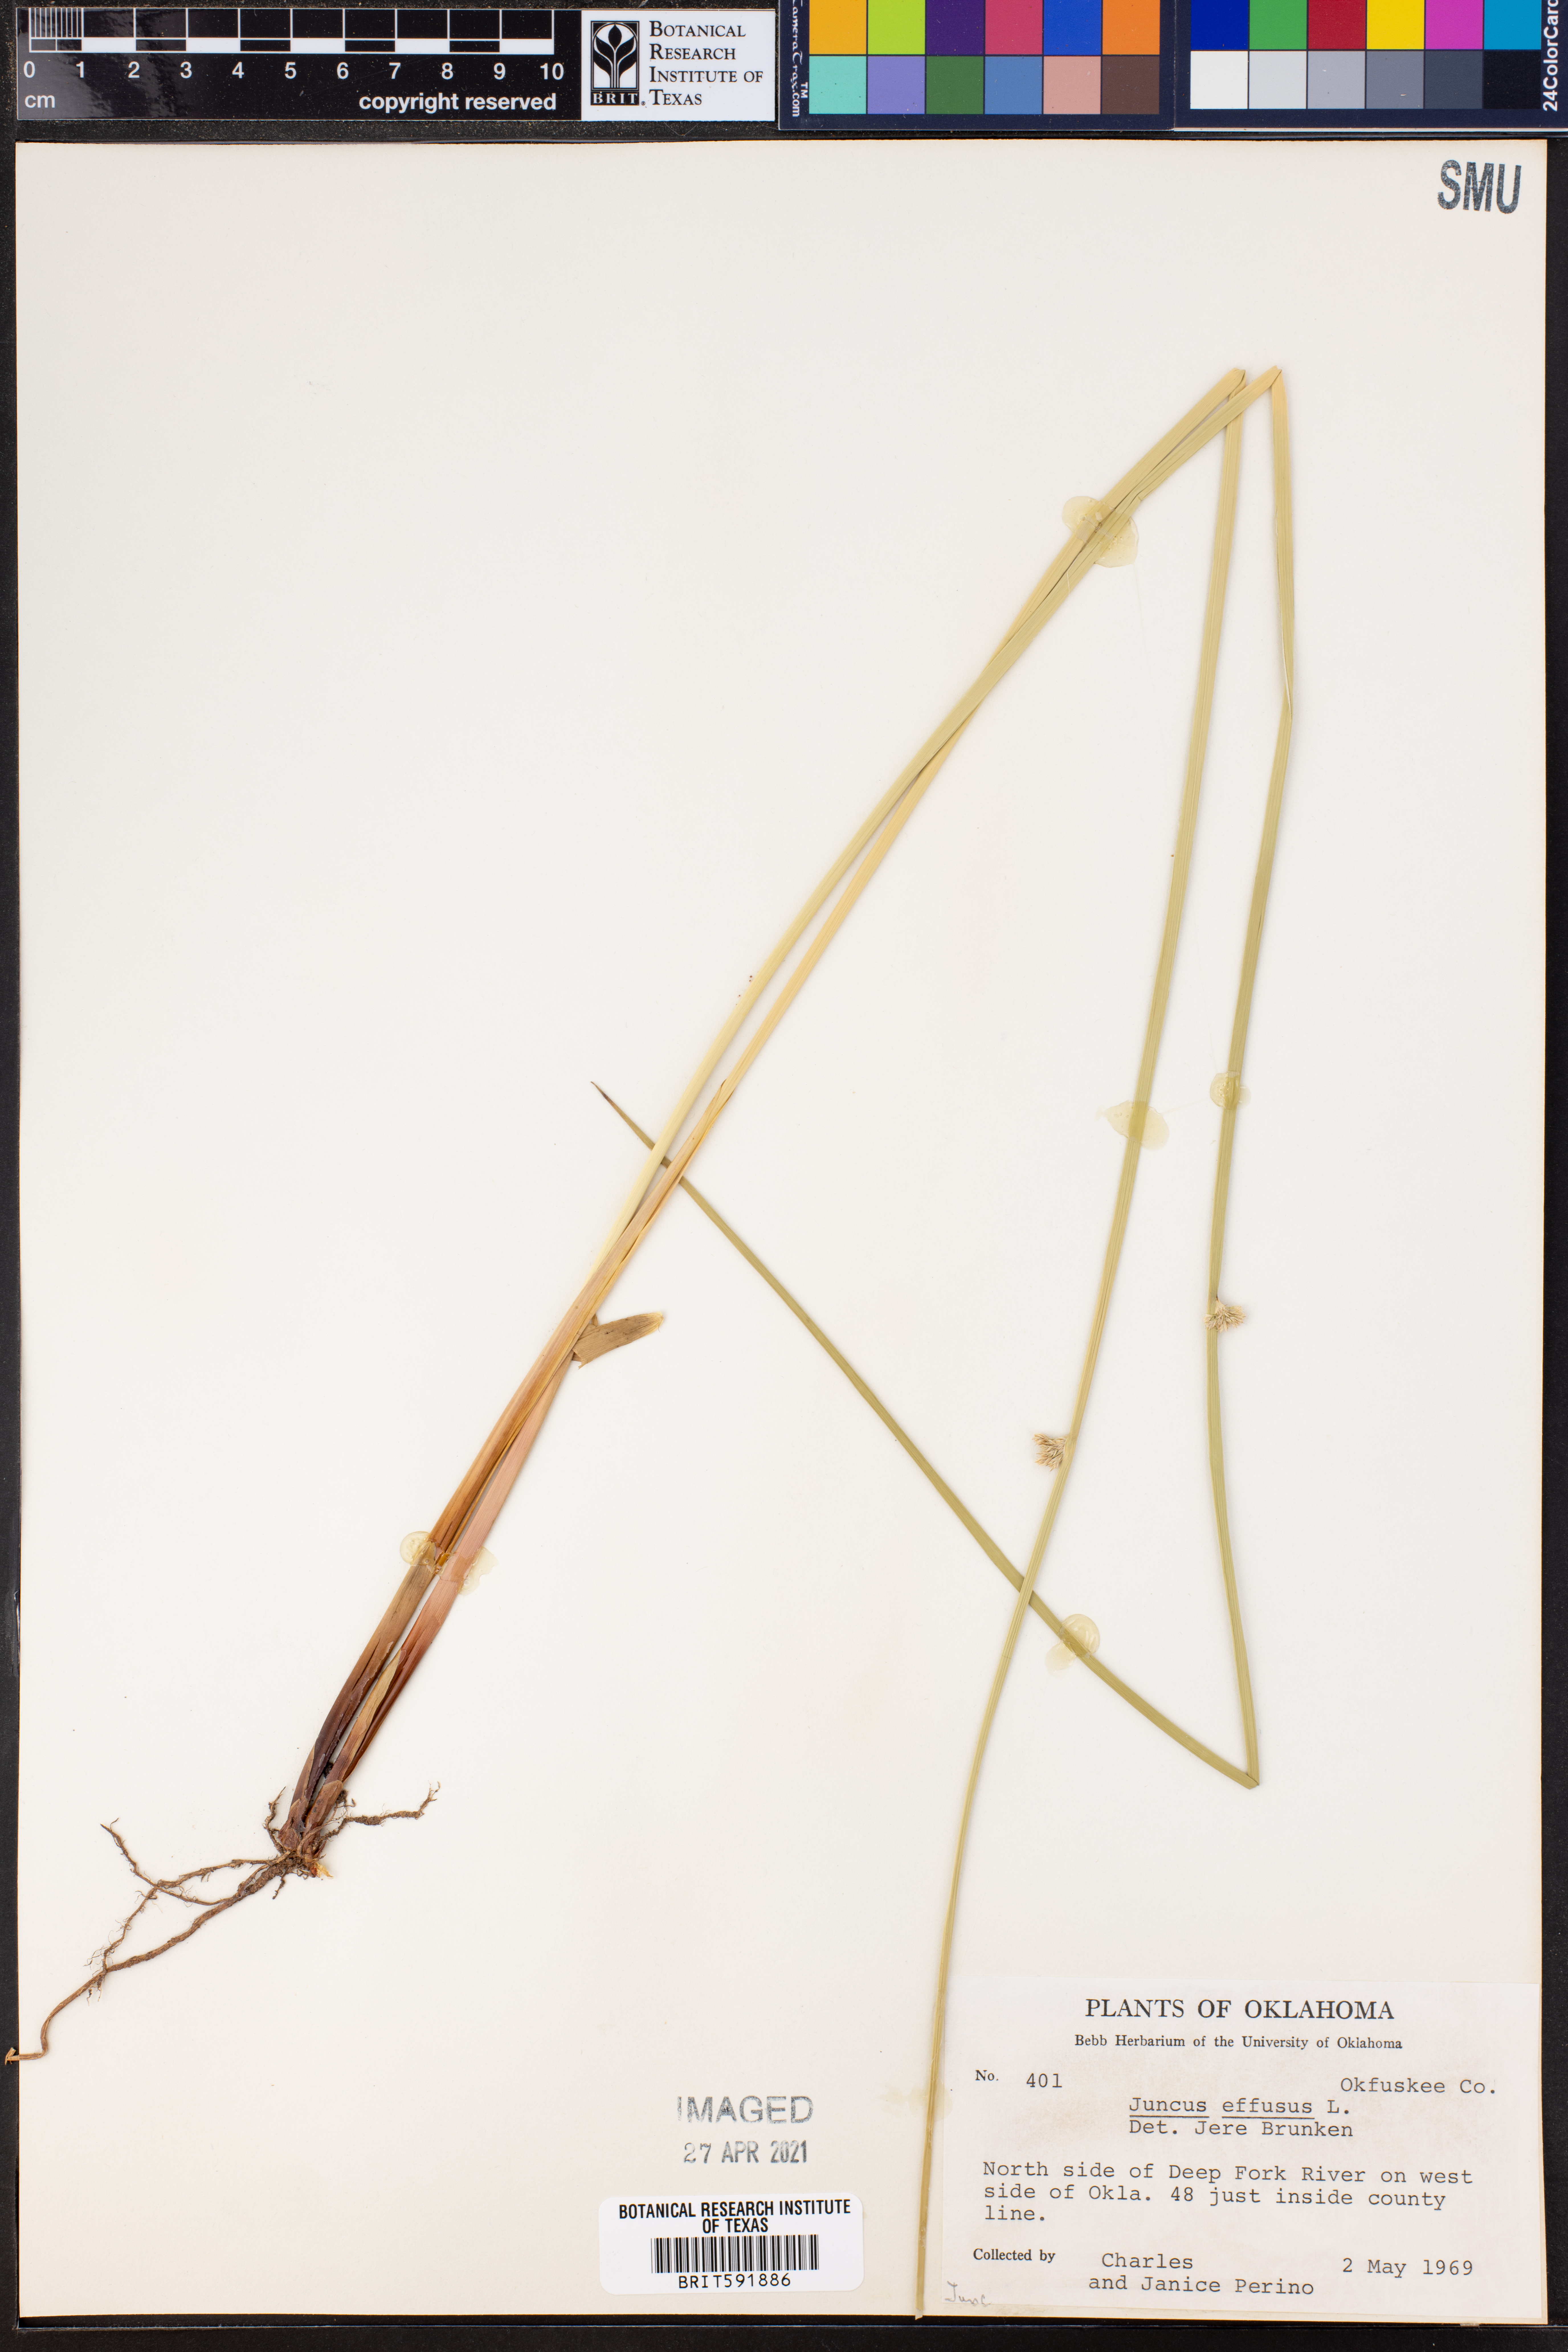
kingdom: Plantae
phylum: Tracheophyta
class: Liliopsida
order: Poales
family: Juncaceae
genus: Juncus
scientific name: Juncus effusus
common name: Soft rush
